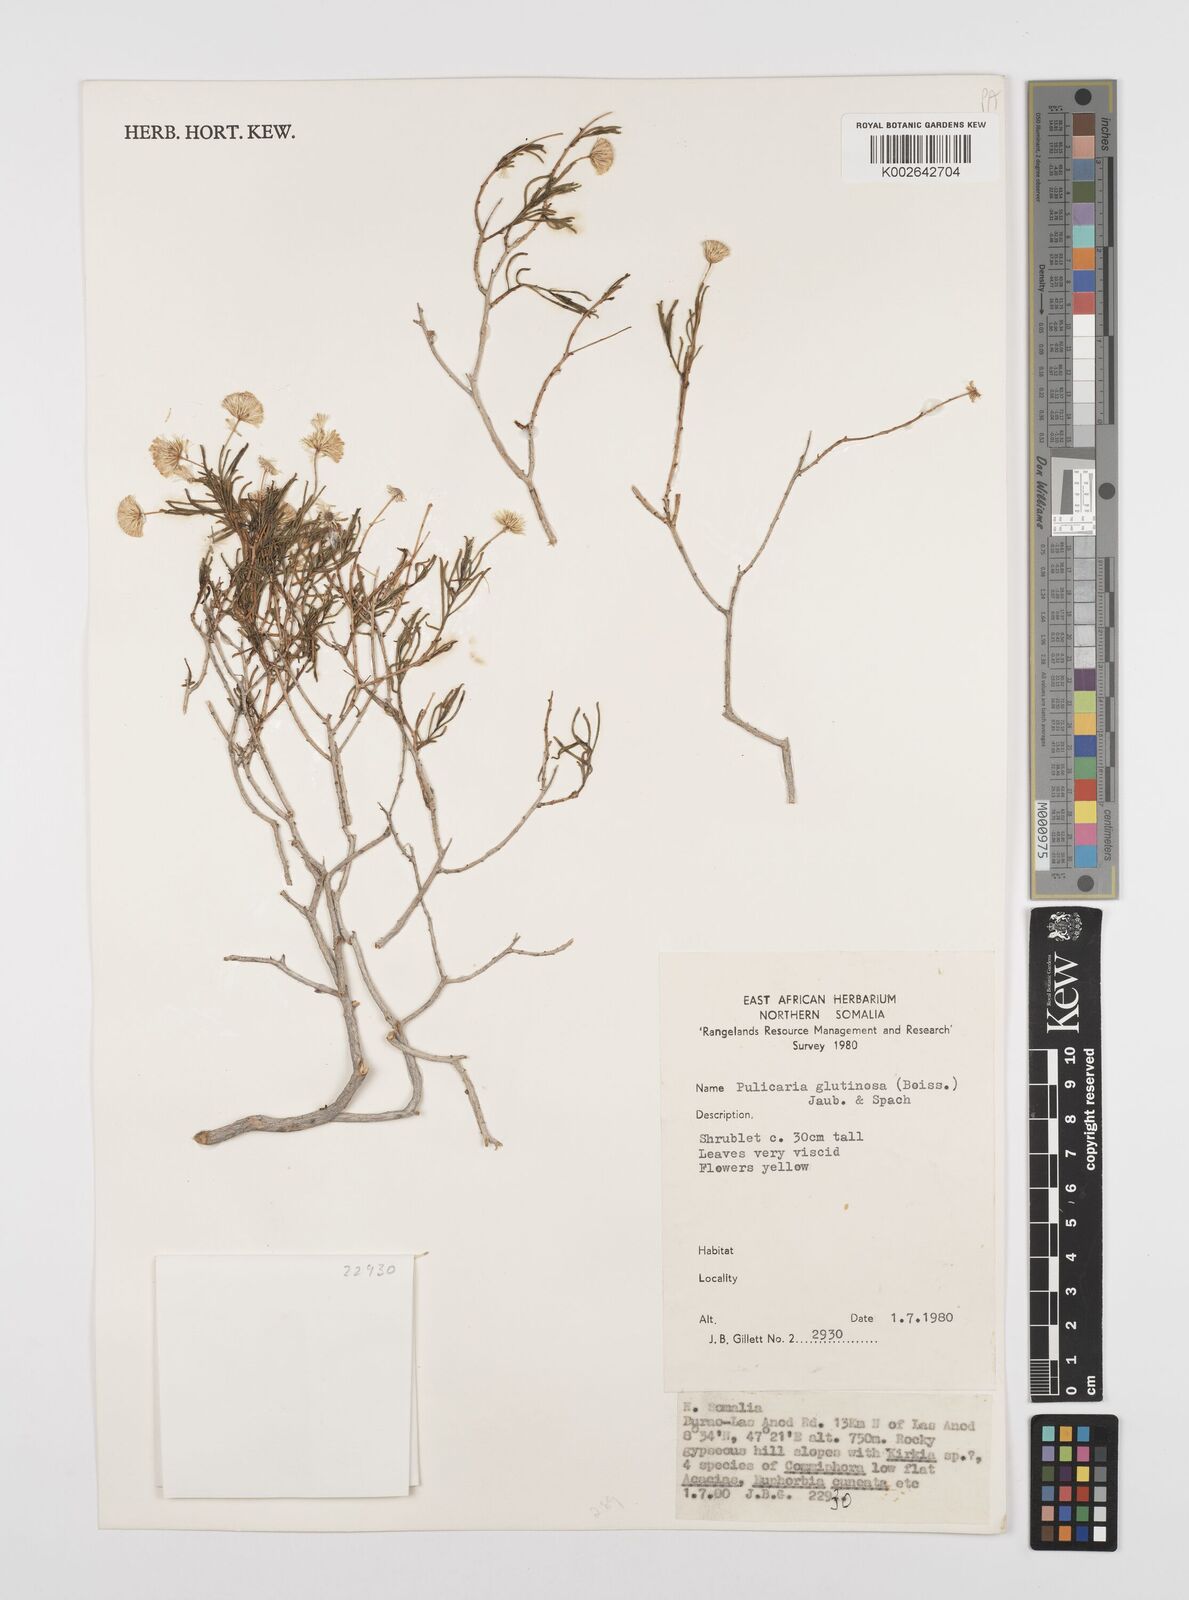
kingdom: Plantae
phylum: Tracheophyta
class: Magnoliopsida
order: Asterales
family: Asteraceae
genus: Pulicaria
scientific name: Pulicaria glutinosa
